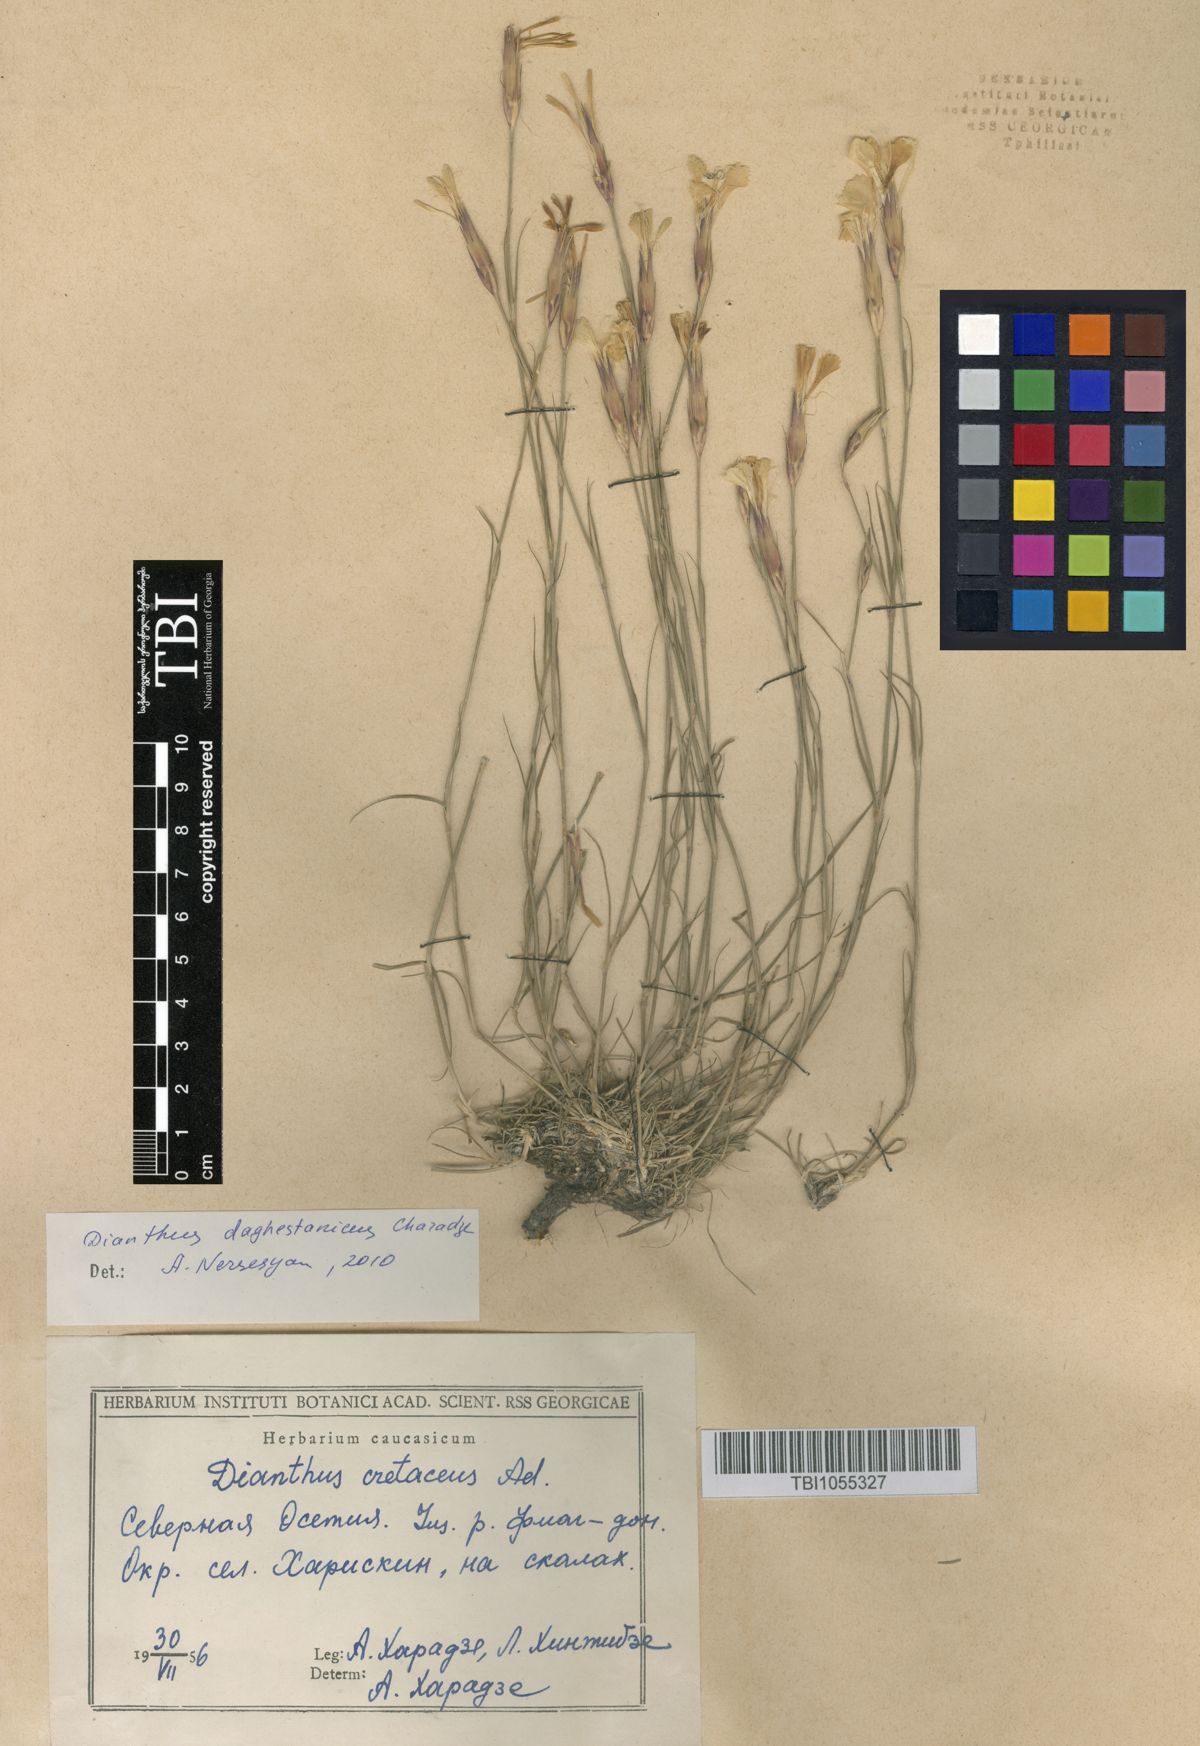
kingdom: Plantae
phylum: Tracheophyta
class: Magnoliopsida
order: Caryophyllales
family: Caryophyllaceae
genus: Dianthus
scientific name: Dianthus cretaceus
